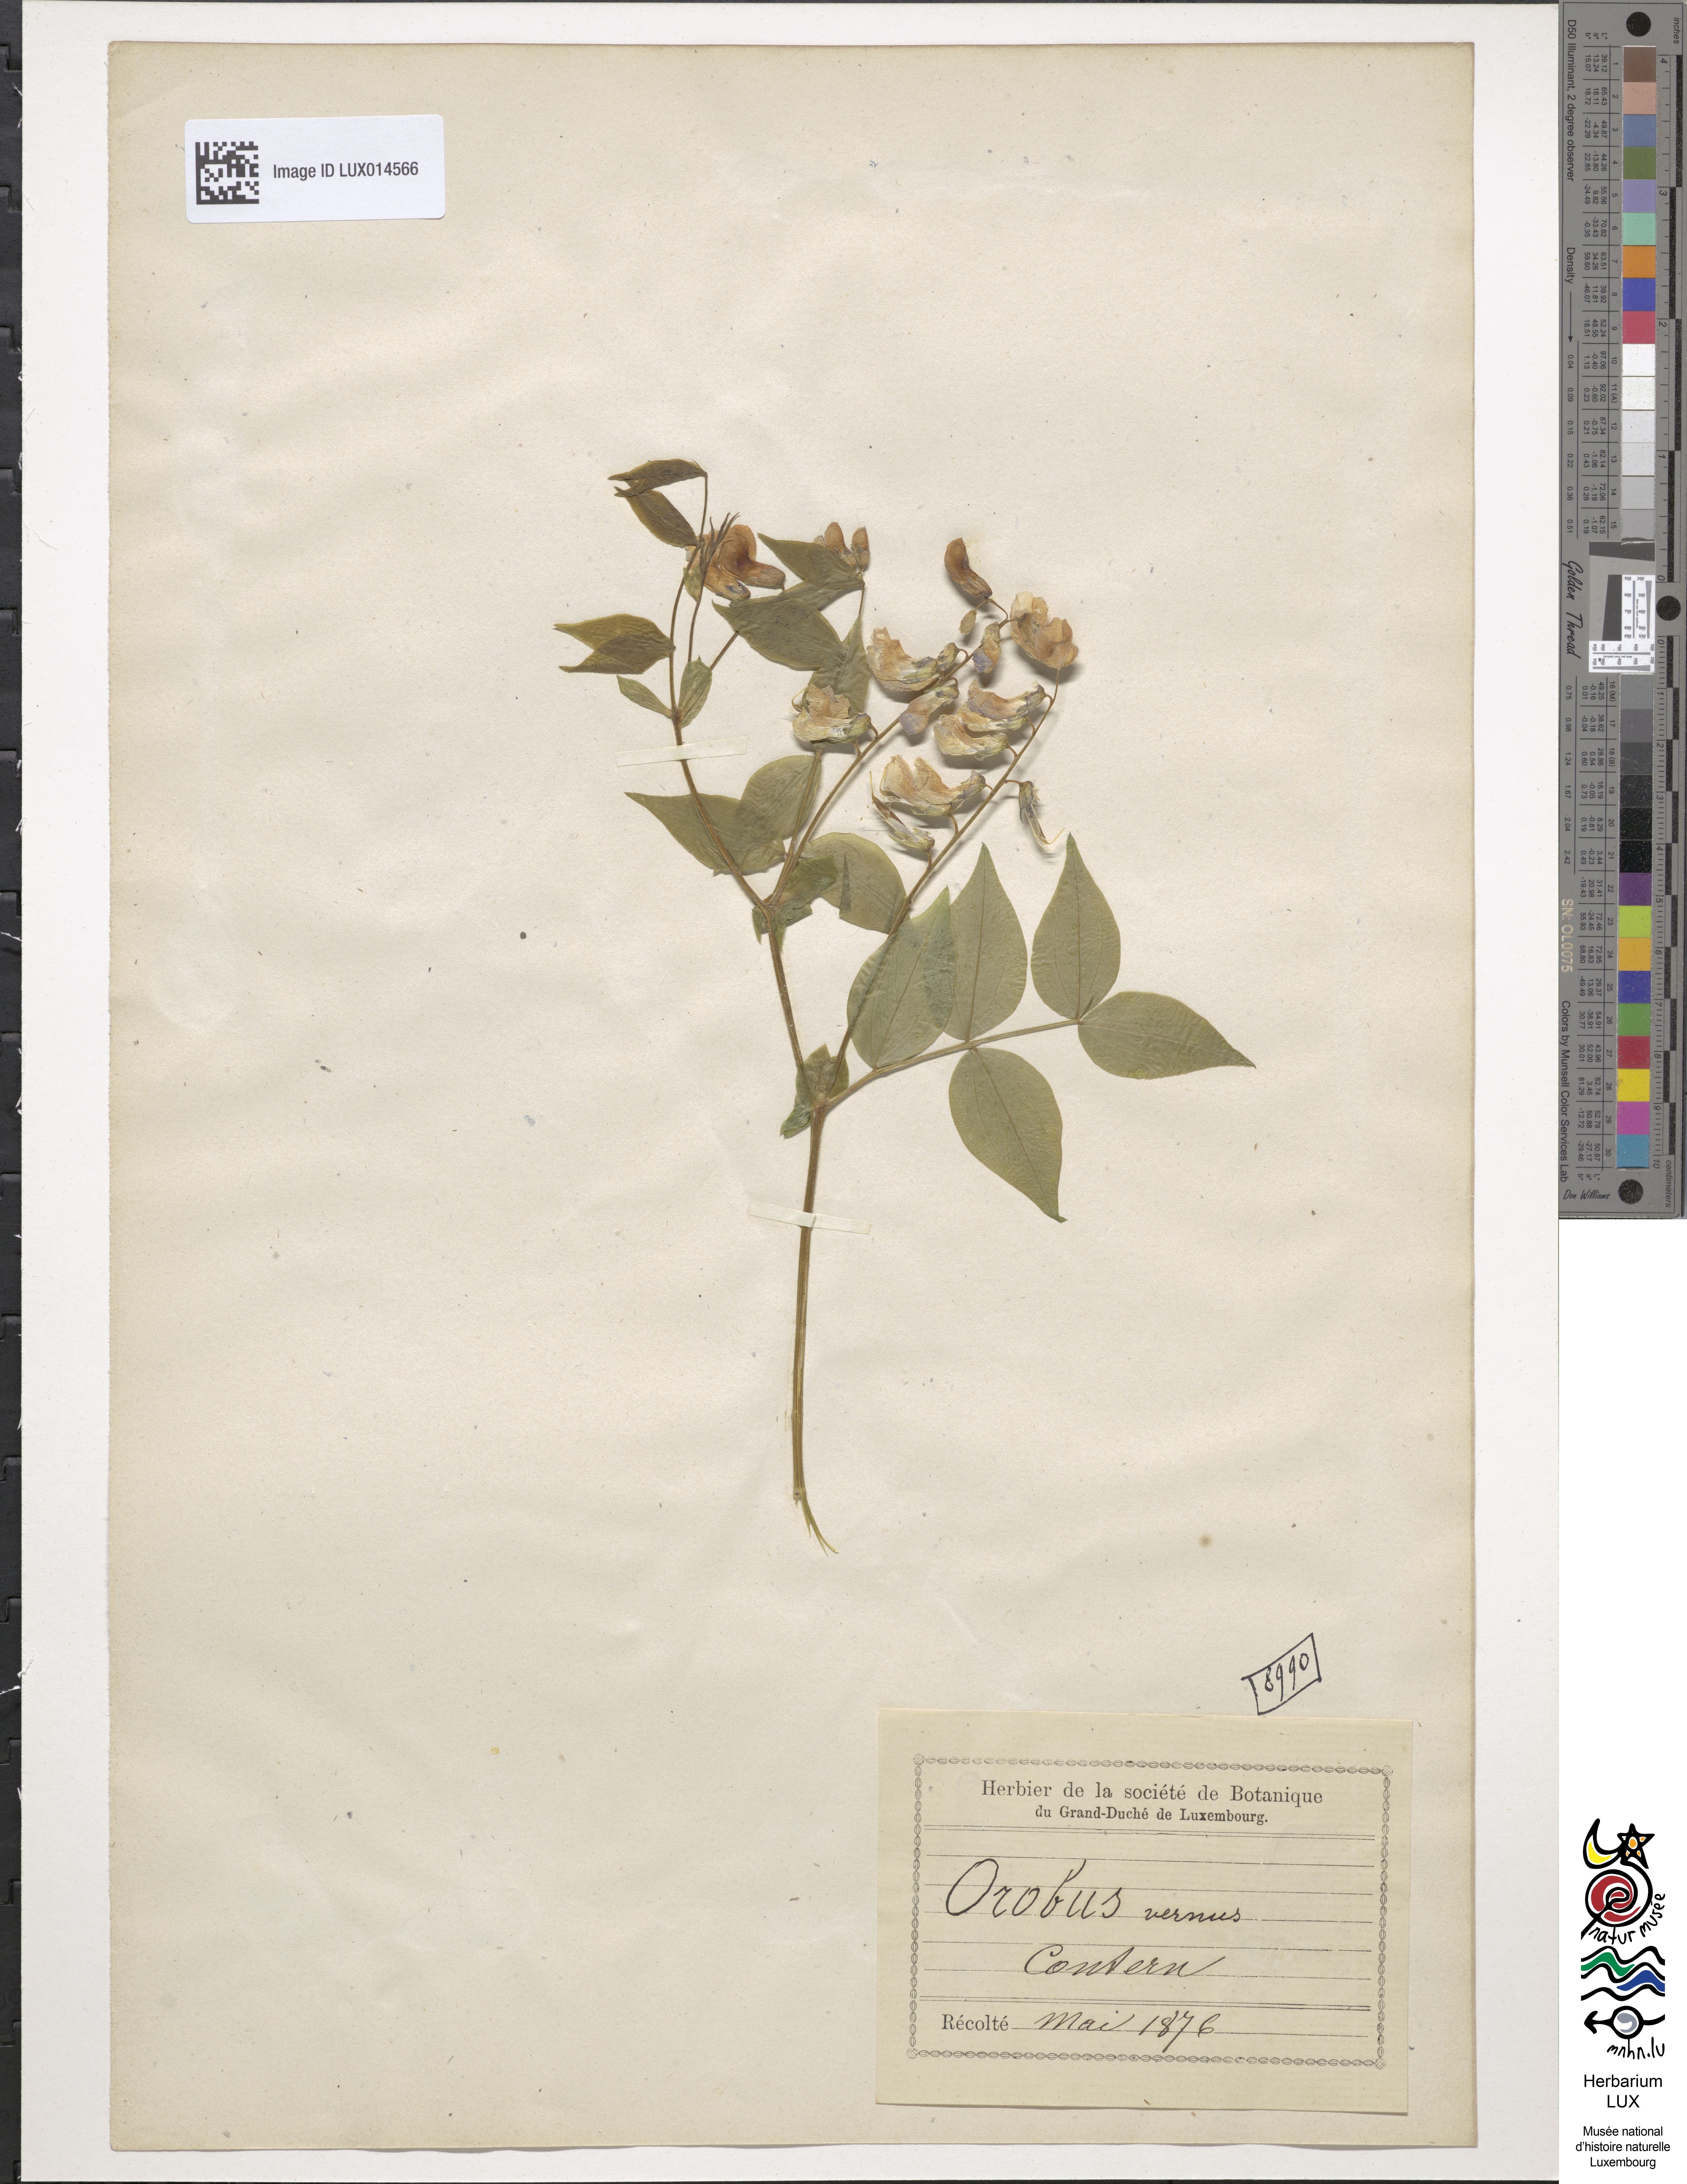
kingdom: Plantae
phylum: Tracheophyta
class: Magnoliopsida
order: Fabales
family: Fabaceae
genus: Lathyrus
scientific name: Lathyrus vernus
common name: Spring pea
